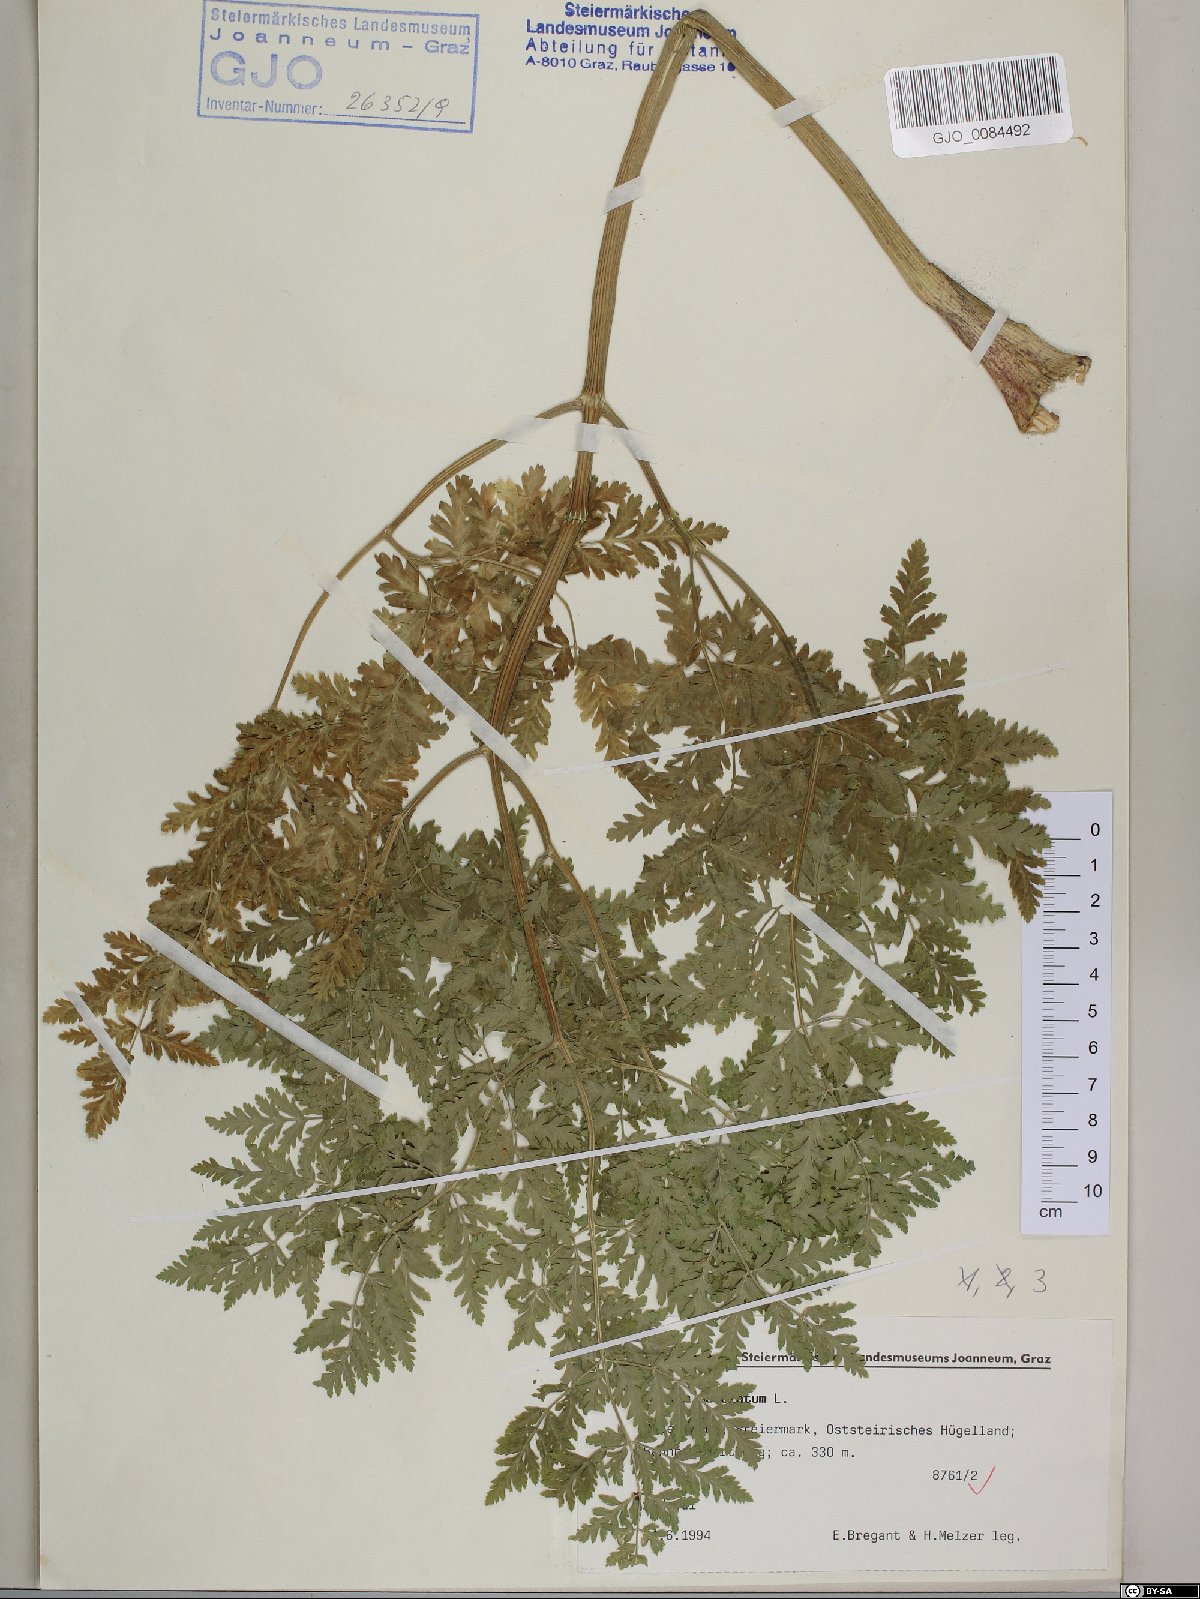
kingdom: Plantae
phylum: Tracheophyta
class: Magnoliopsida
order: Apiales
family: Apiaceae
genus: Conium
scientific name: Conium maculatum
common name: Hemlock
